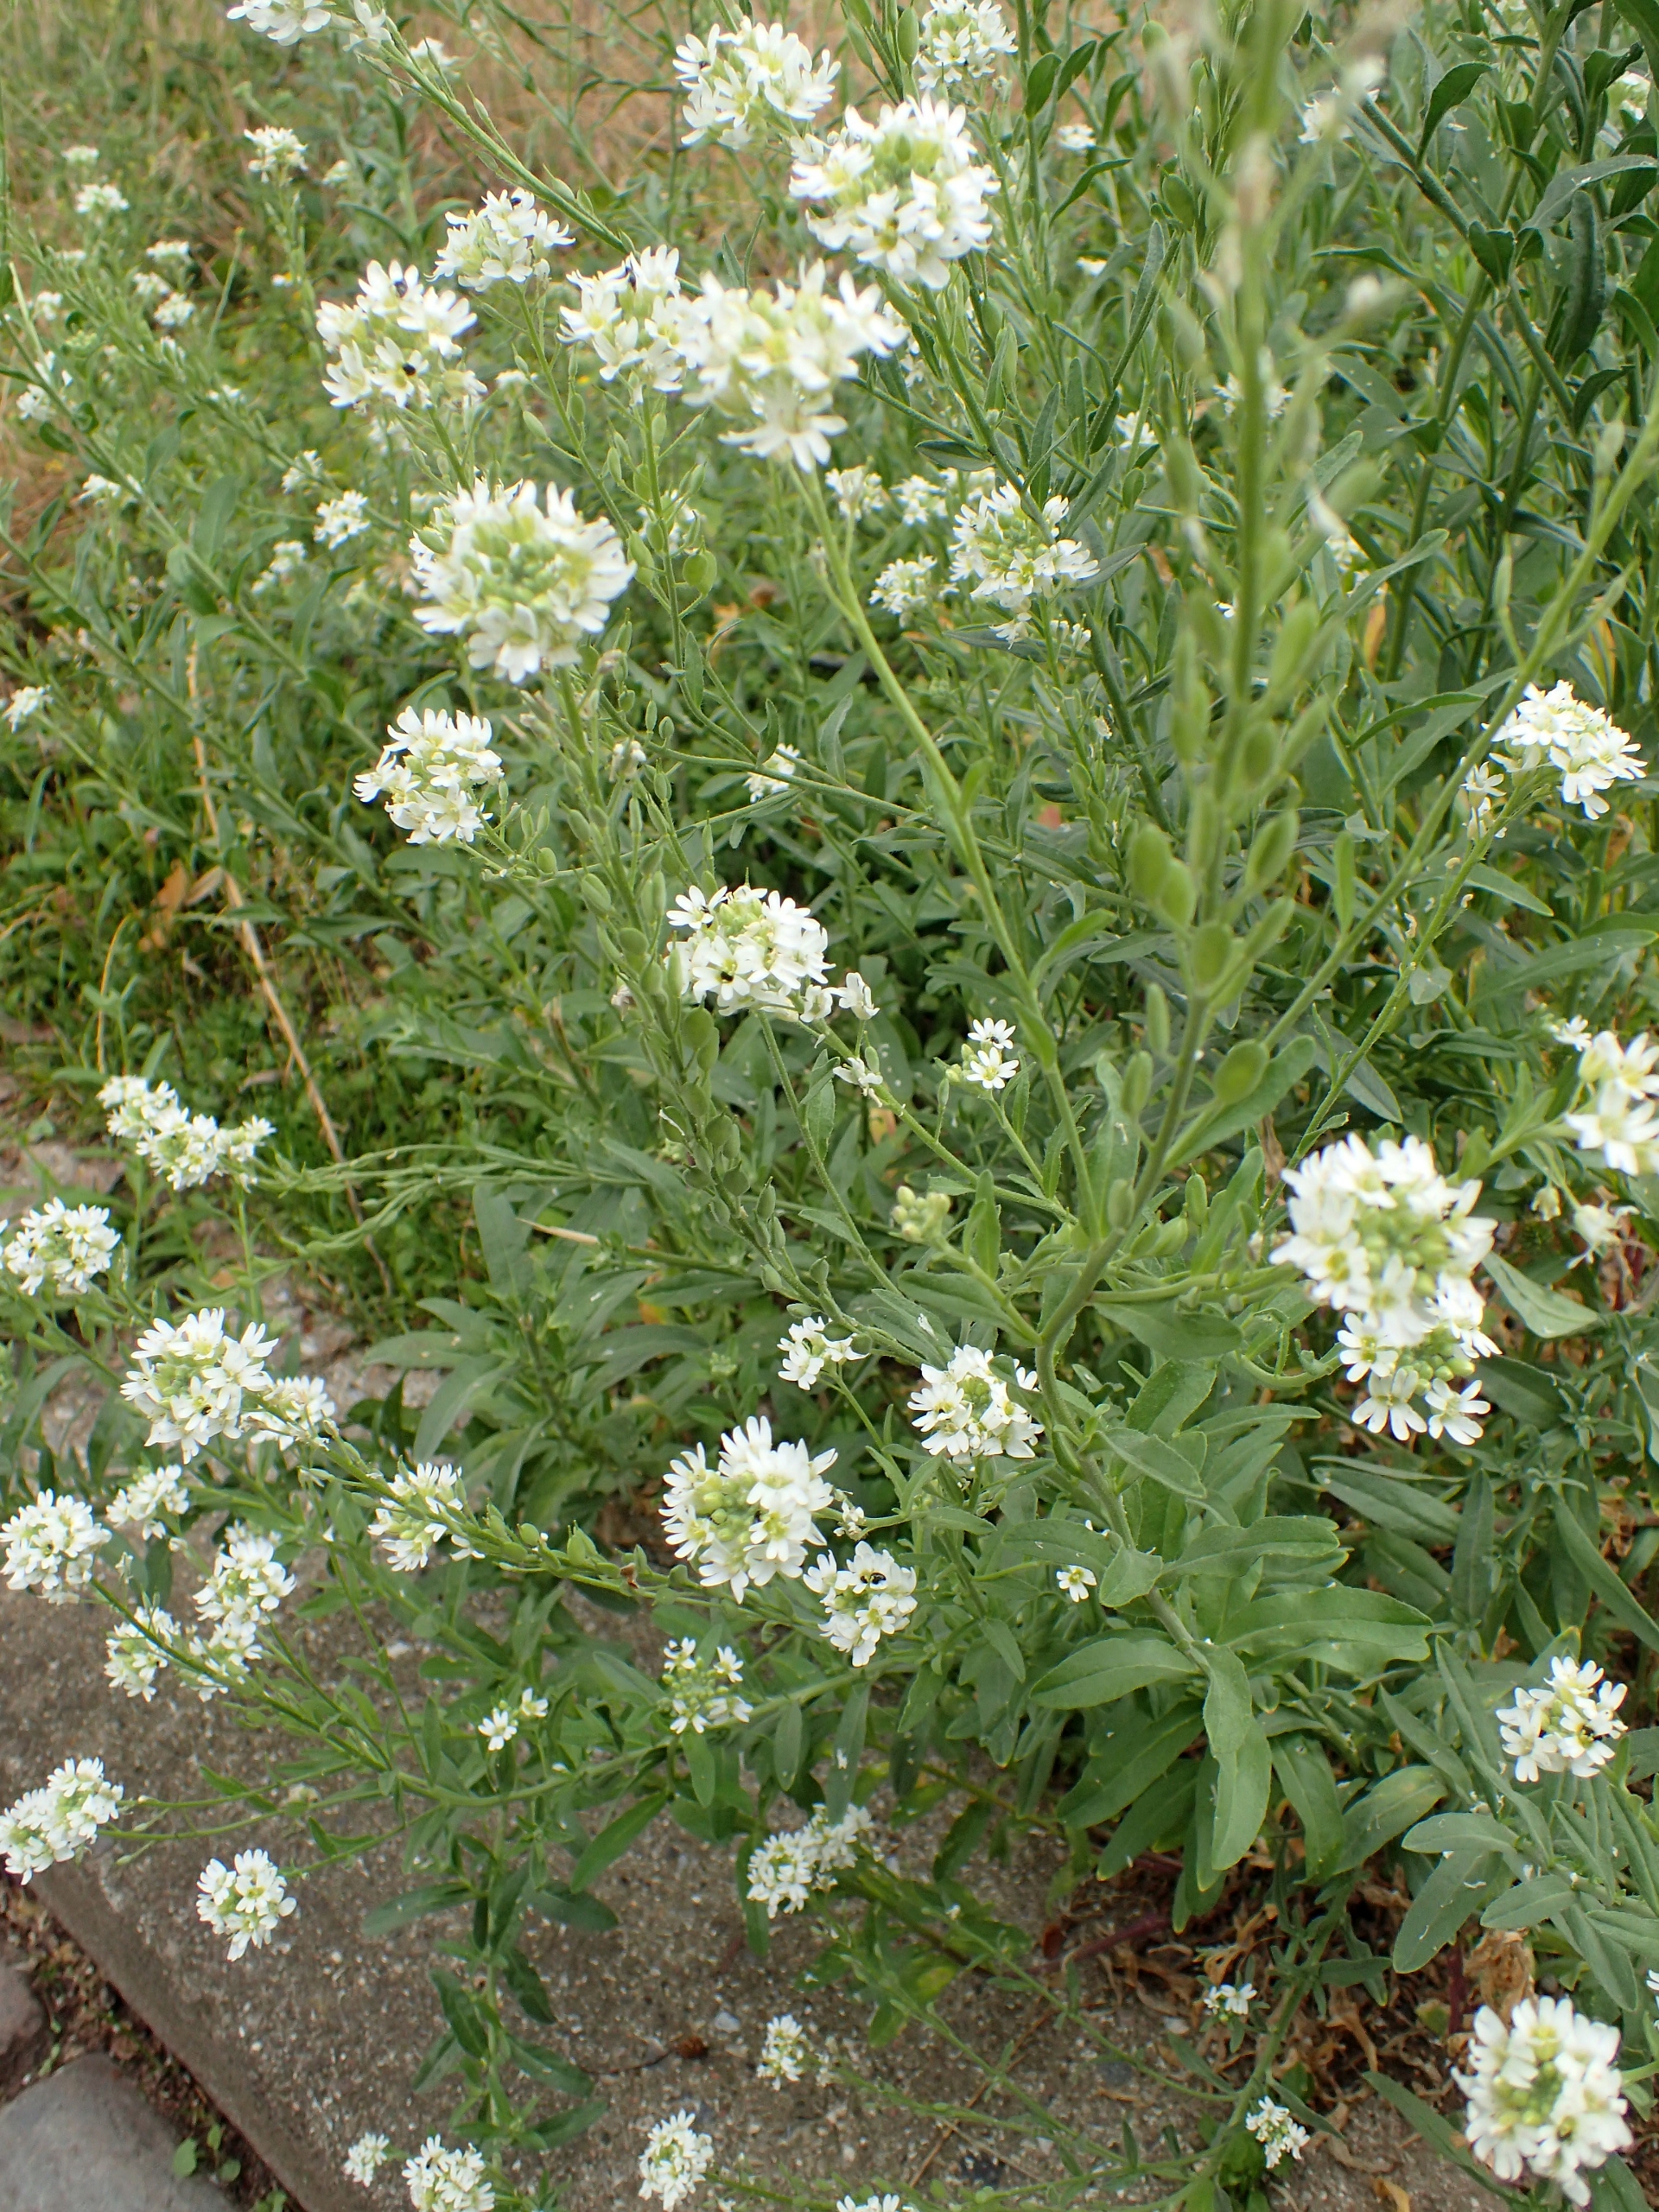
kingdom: Plantae
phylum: Tracheophyta
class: Magnoliopsida
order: Brassicales
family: Brassicaceae
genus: Berteroa
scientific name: Berteroa incana
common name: Kløvplade
